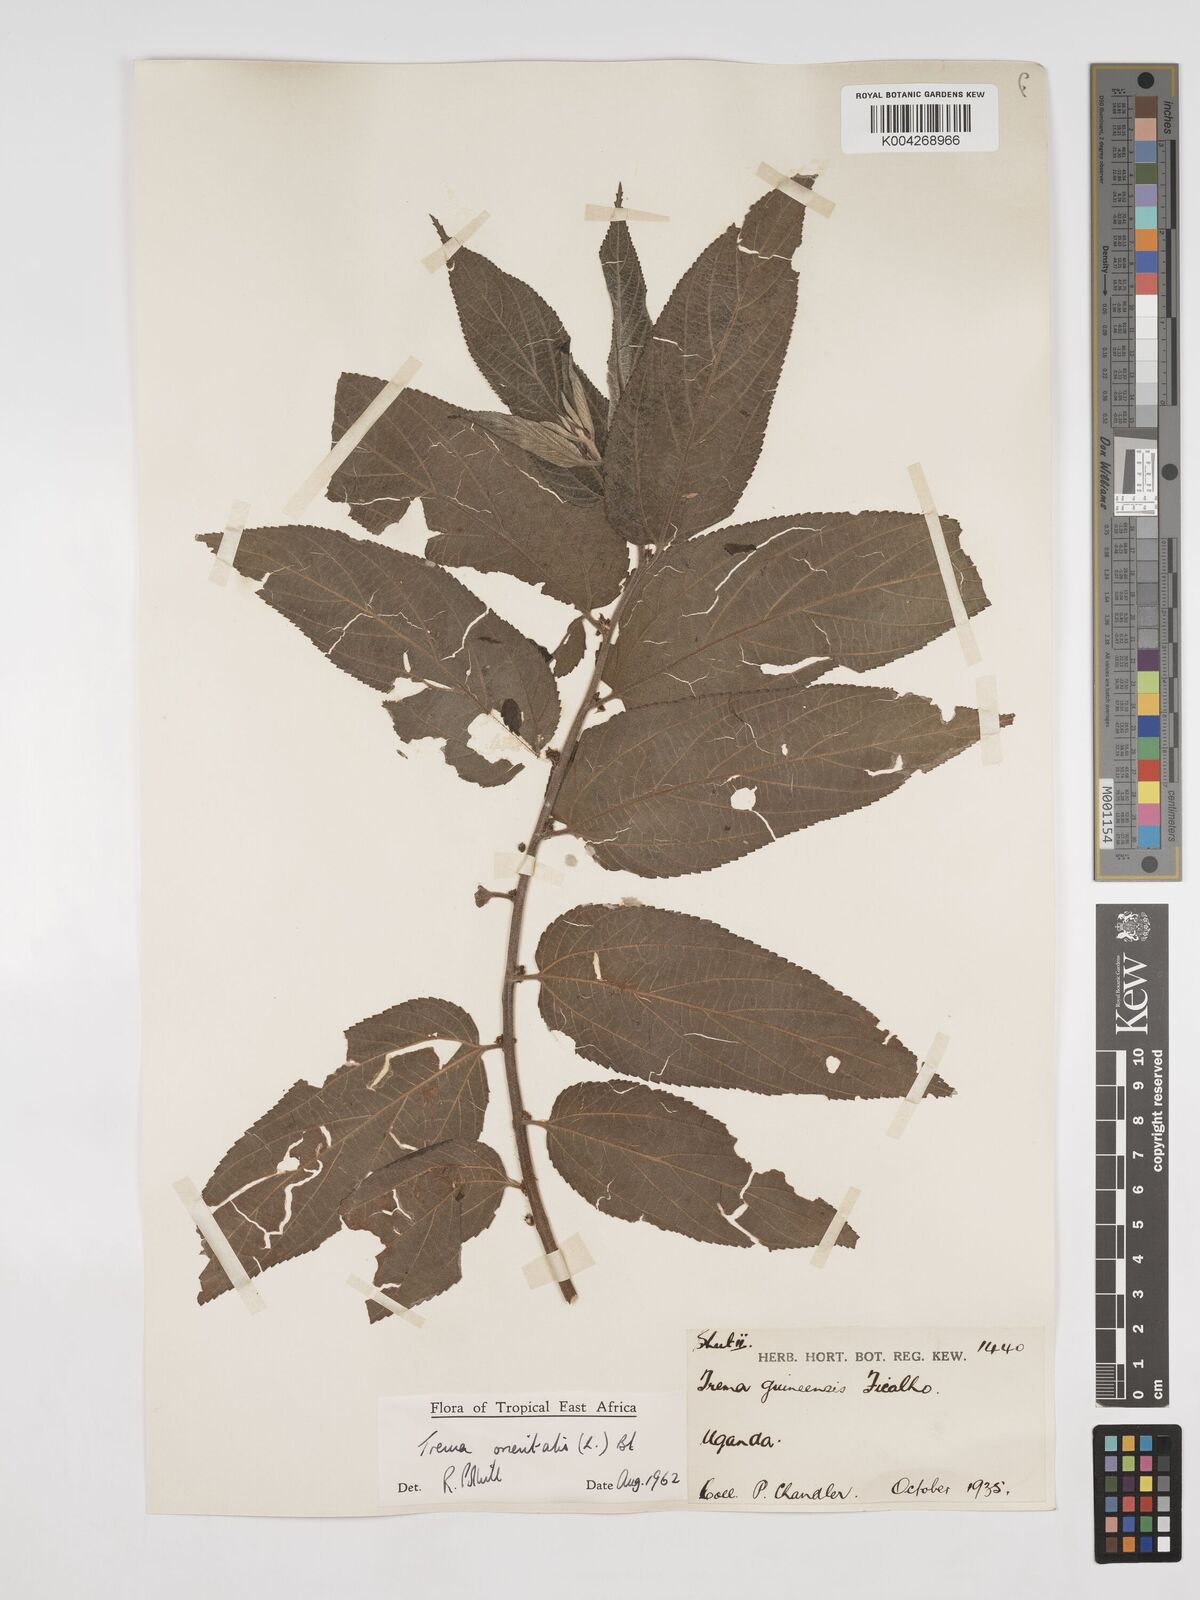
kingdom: Plantae
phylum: Tracheophyta
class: Magnoliopsida
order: Rosales
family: Cannabaceae
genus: Trema
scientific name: Trema orientale
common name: Indian charcoal tree
